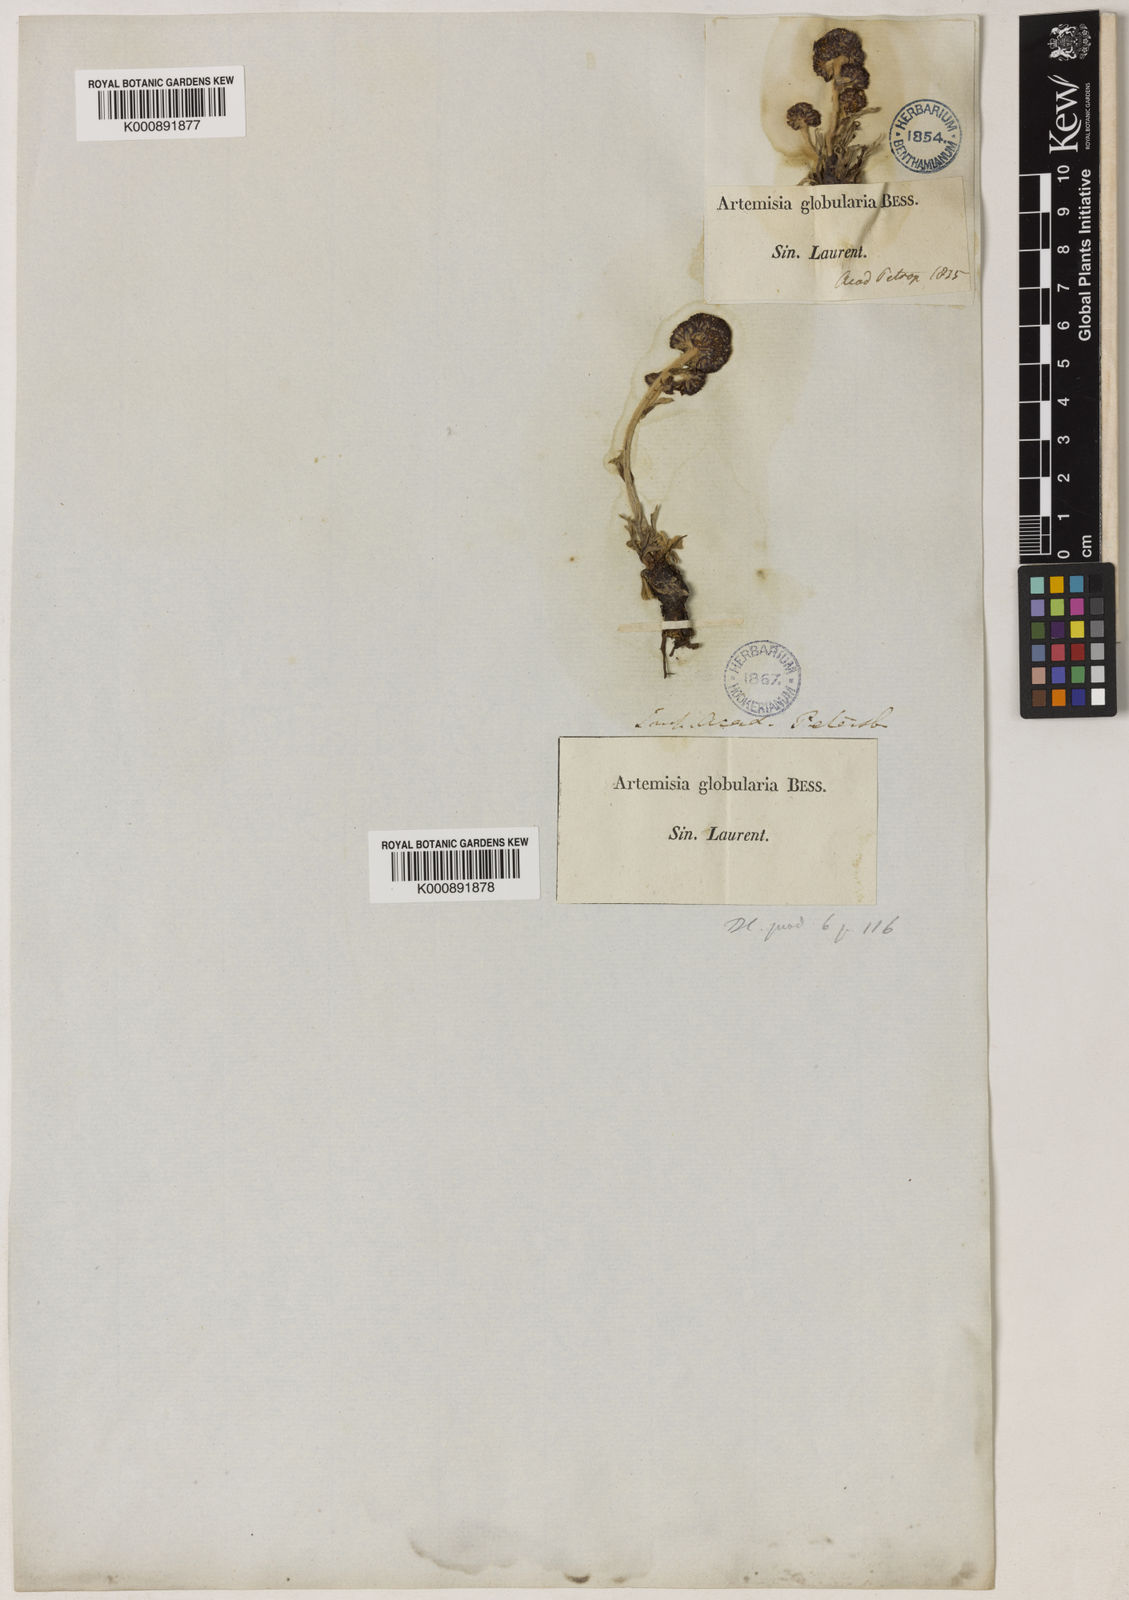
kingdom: Plantae
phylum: Tracheophyta
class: Magnoliopsida
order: Asterales
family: Asteraceae
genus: Artemisia
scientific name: Artemisia globularia
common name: Purple wormwood
